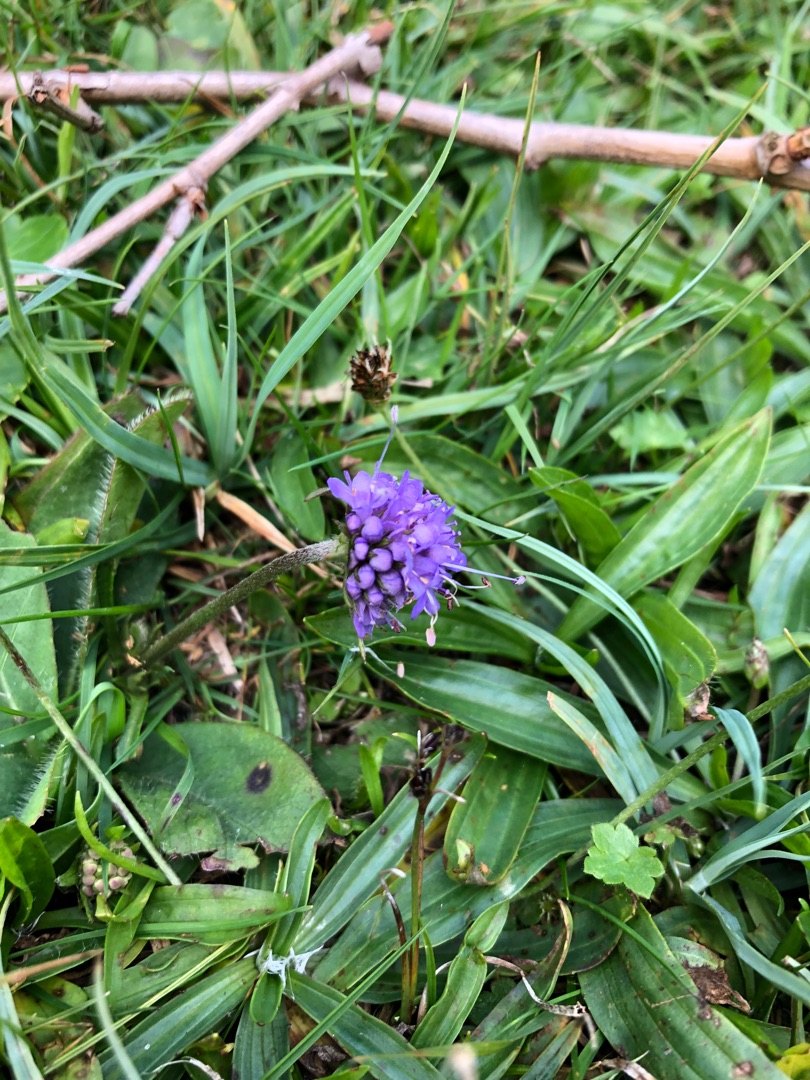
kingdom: Plantae
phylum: Tracheophyta
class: Magnoliopsida
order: Dipsacales
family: Caprifoliaceae
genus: Succisa
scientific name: Succisa pratensis
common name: Djævelsbid
